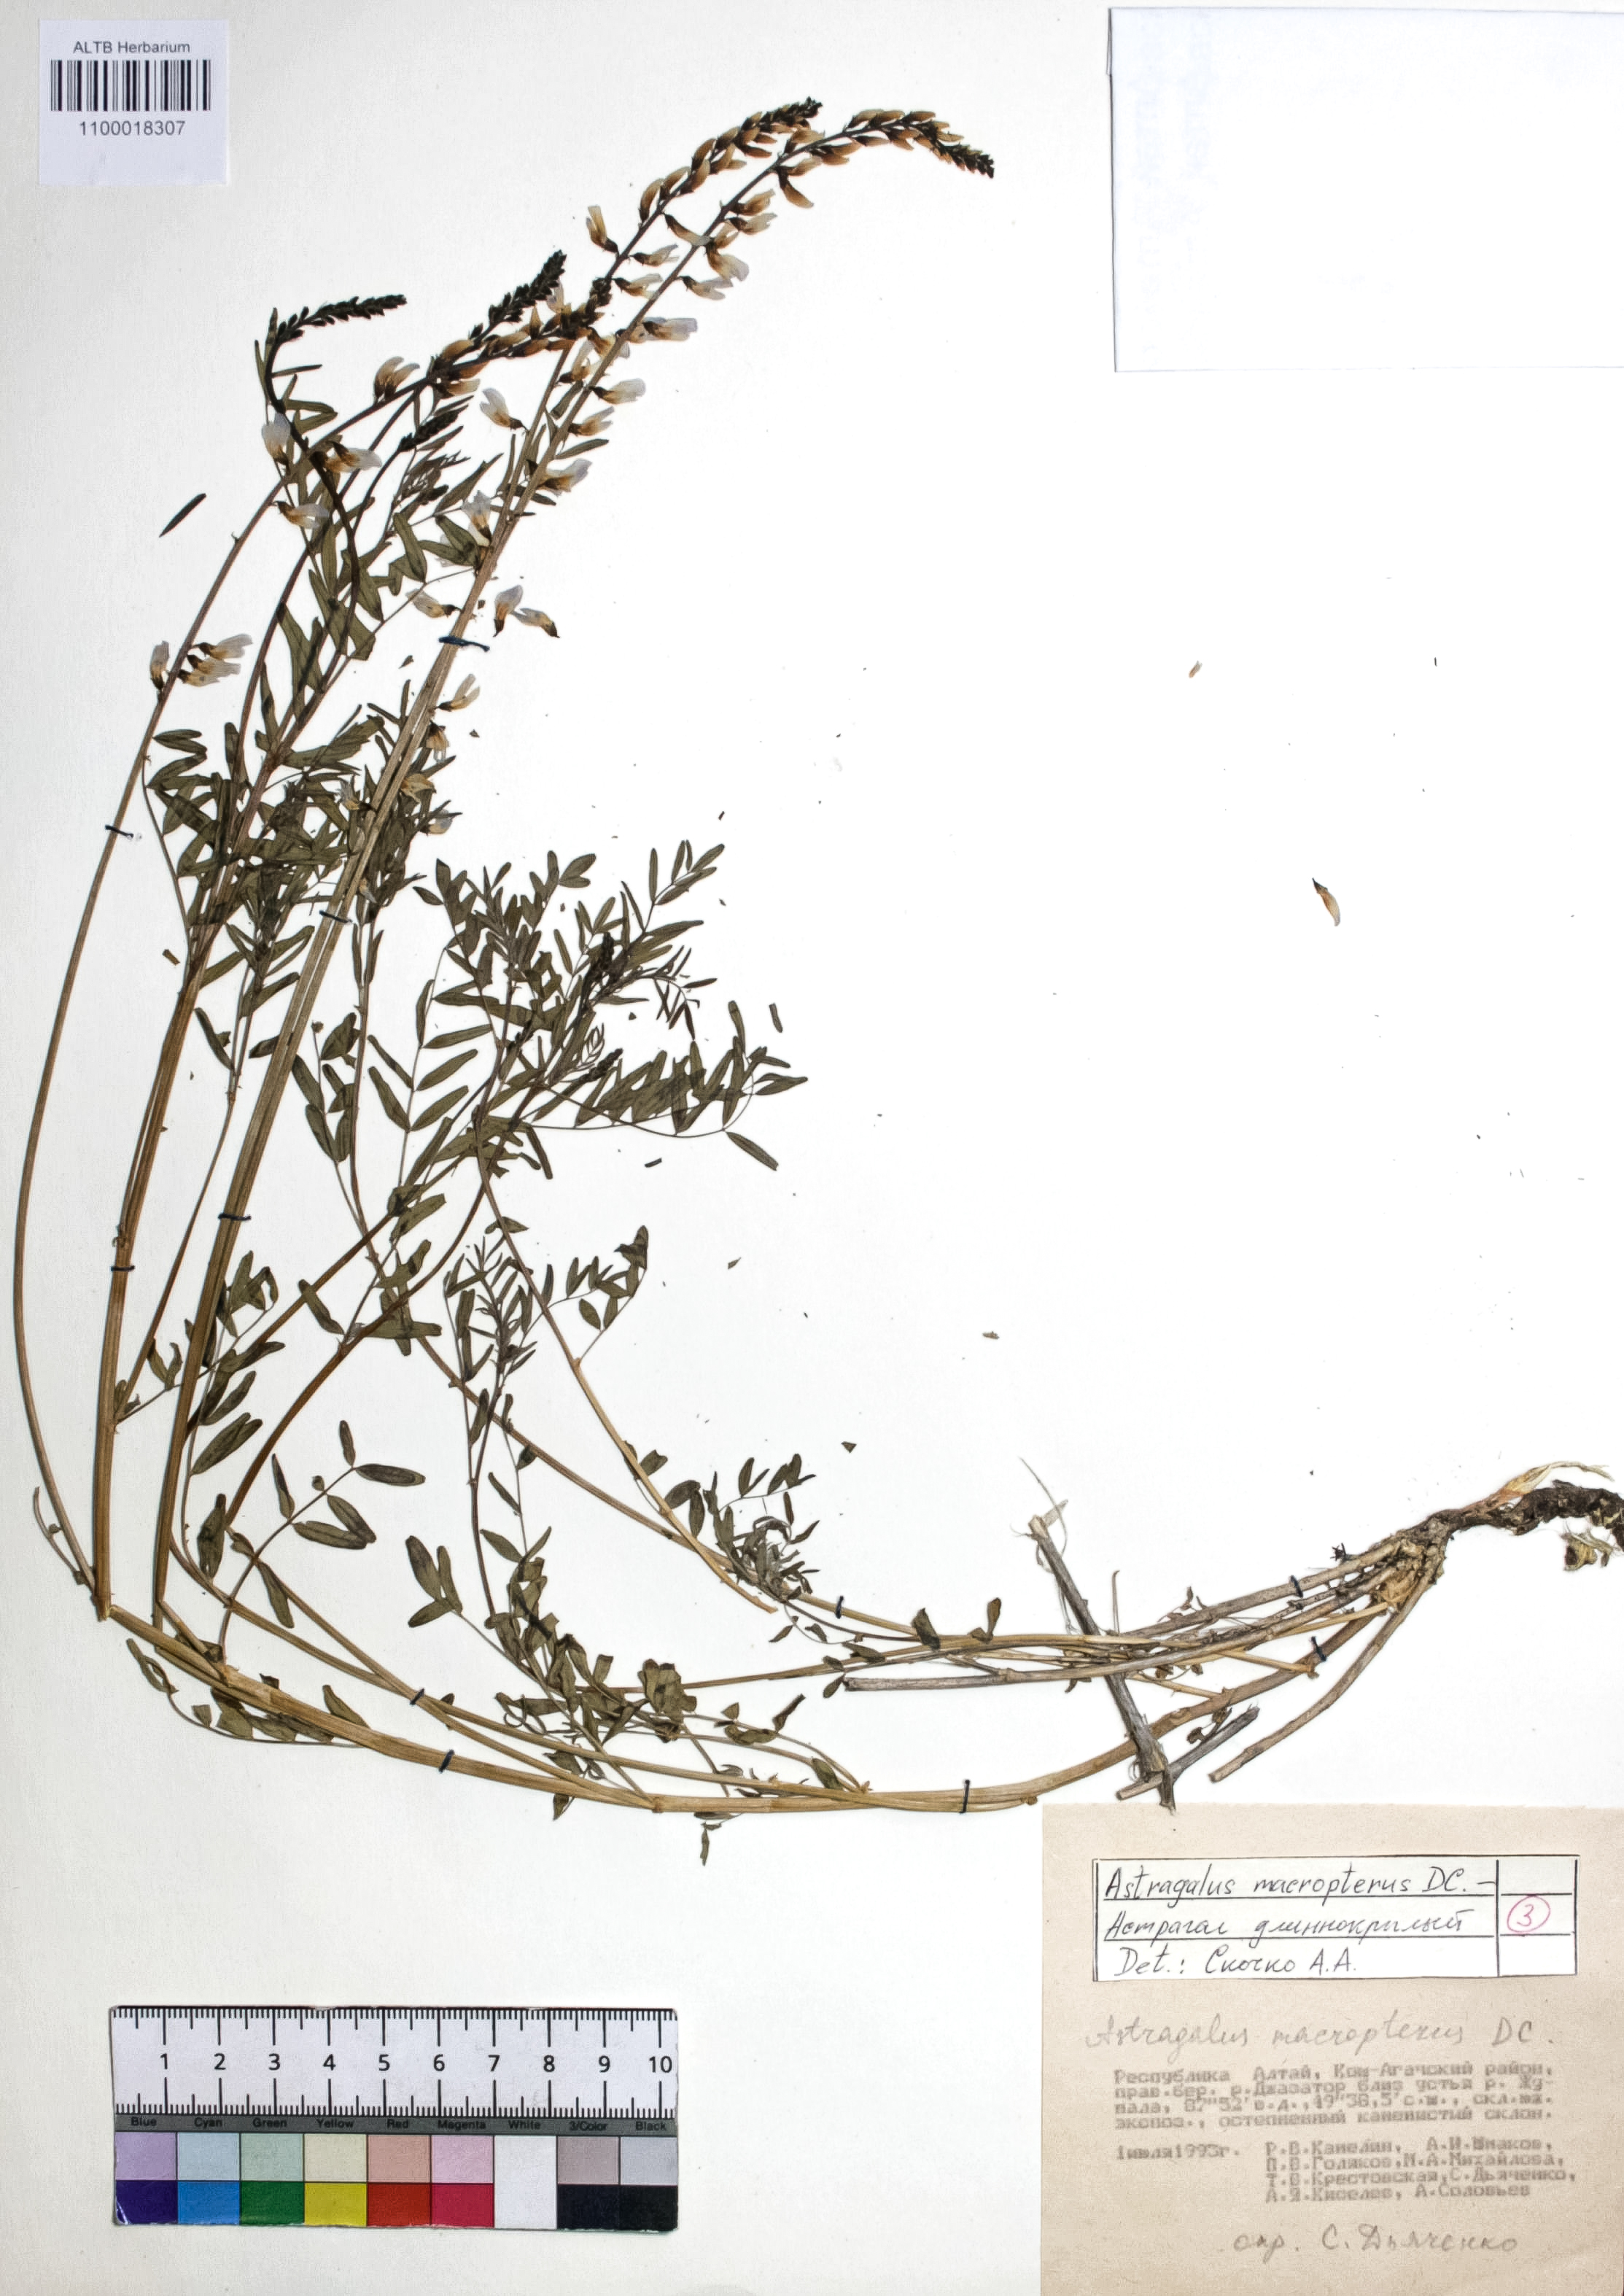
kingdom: Plantae
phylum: Tracheophyta
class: Magnoliopsida
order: Fabales
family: Fabaceae
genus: Astragalus
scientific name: Astragalus leptostachys
